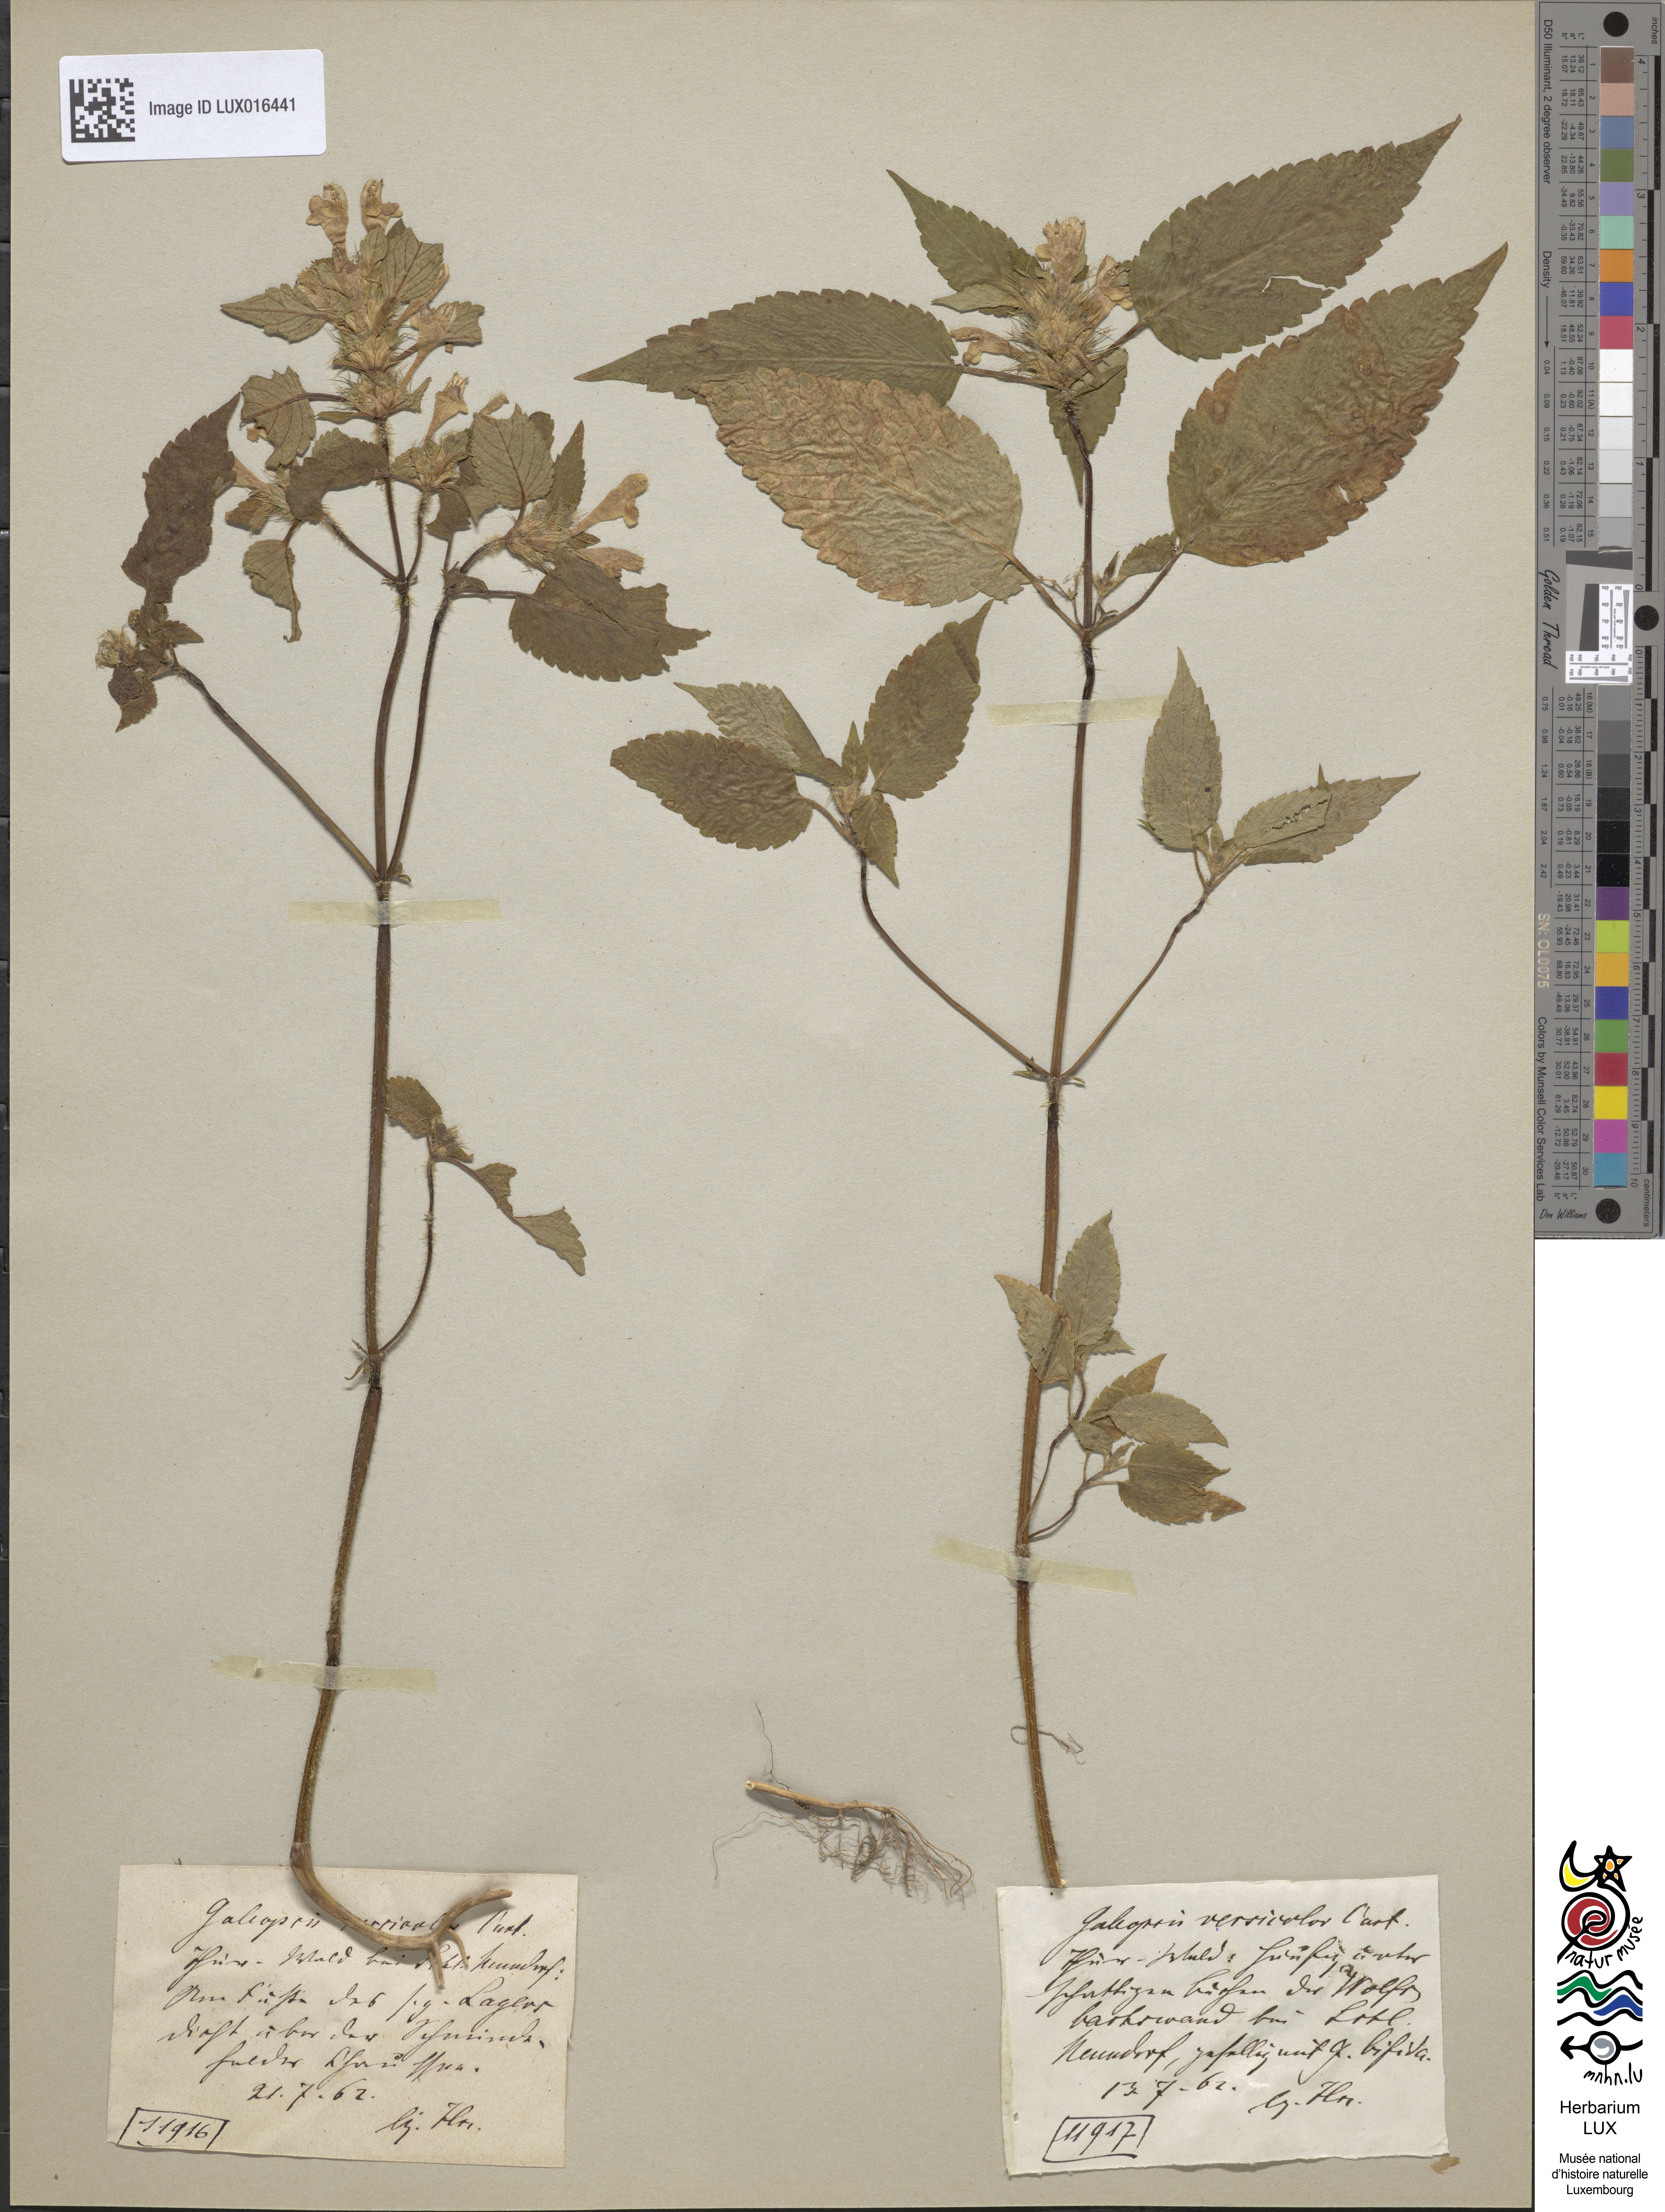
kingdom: Plantae
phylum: Tracheophyta
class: Magnoliopsida
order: Lamiales
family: Lamiaceae
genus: Galeopsis
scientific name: Galeopsis speciosa
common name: Large-flowered hemp-nettle
